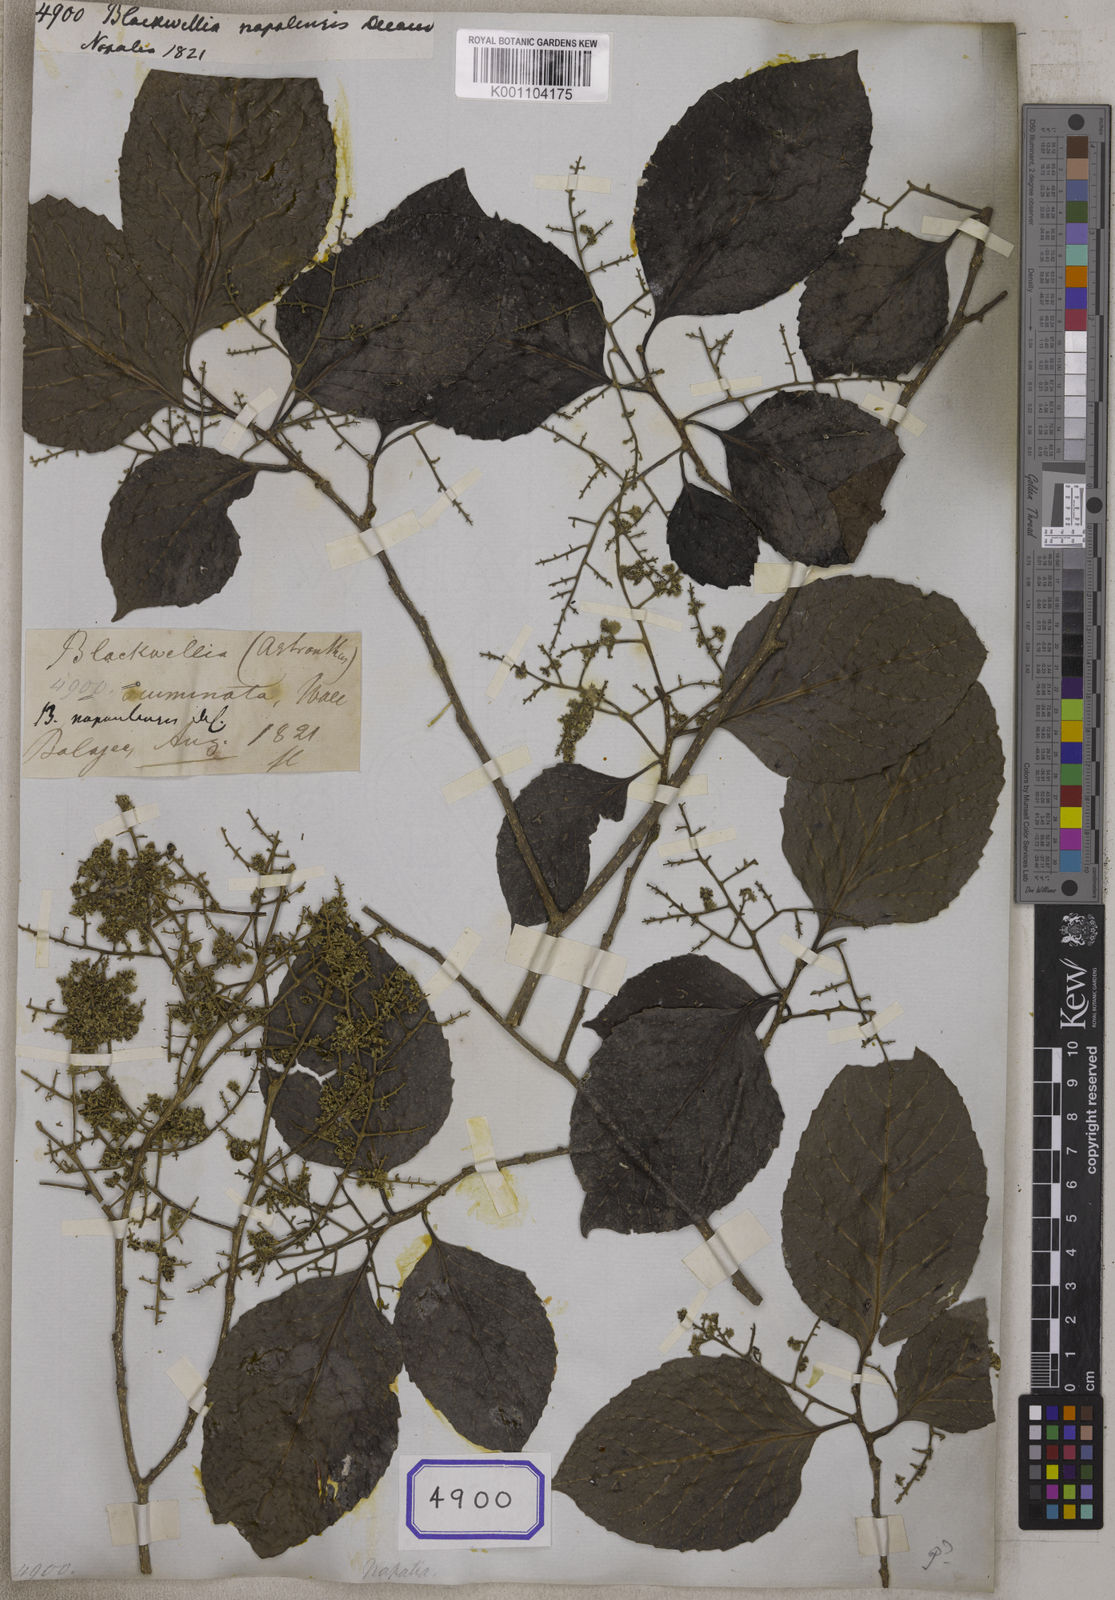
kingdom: Plantae
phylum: Tracheophyta
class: Magnoliopsida
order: Vitales
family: Vitaceae
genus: Leea
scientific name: Leea
